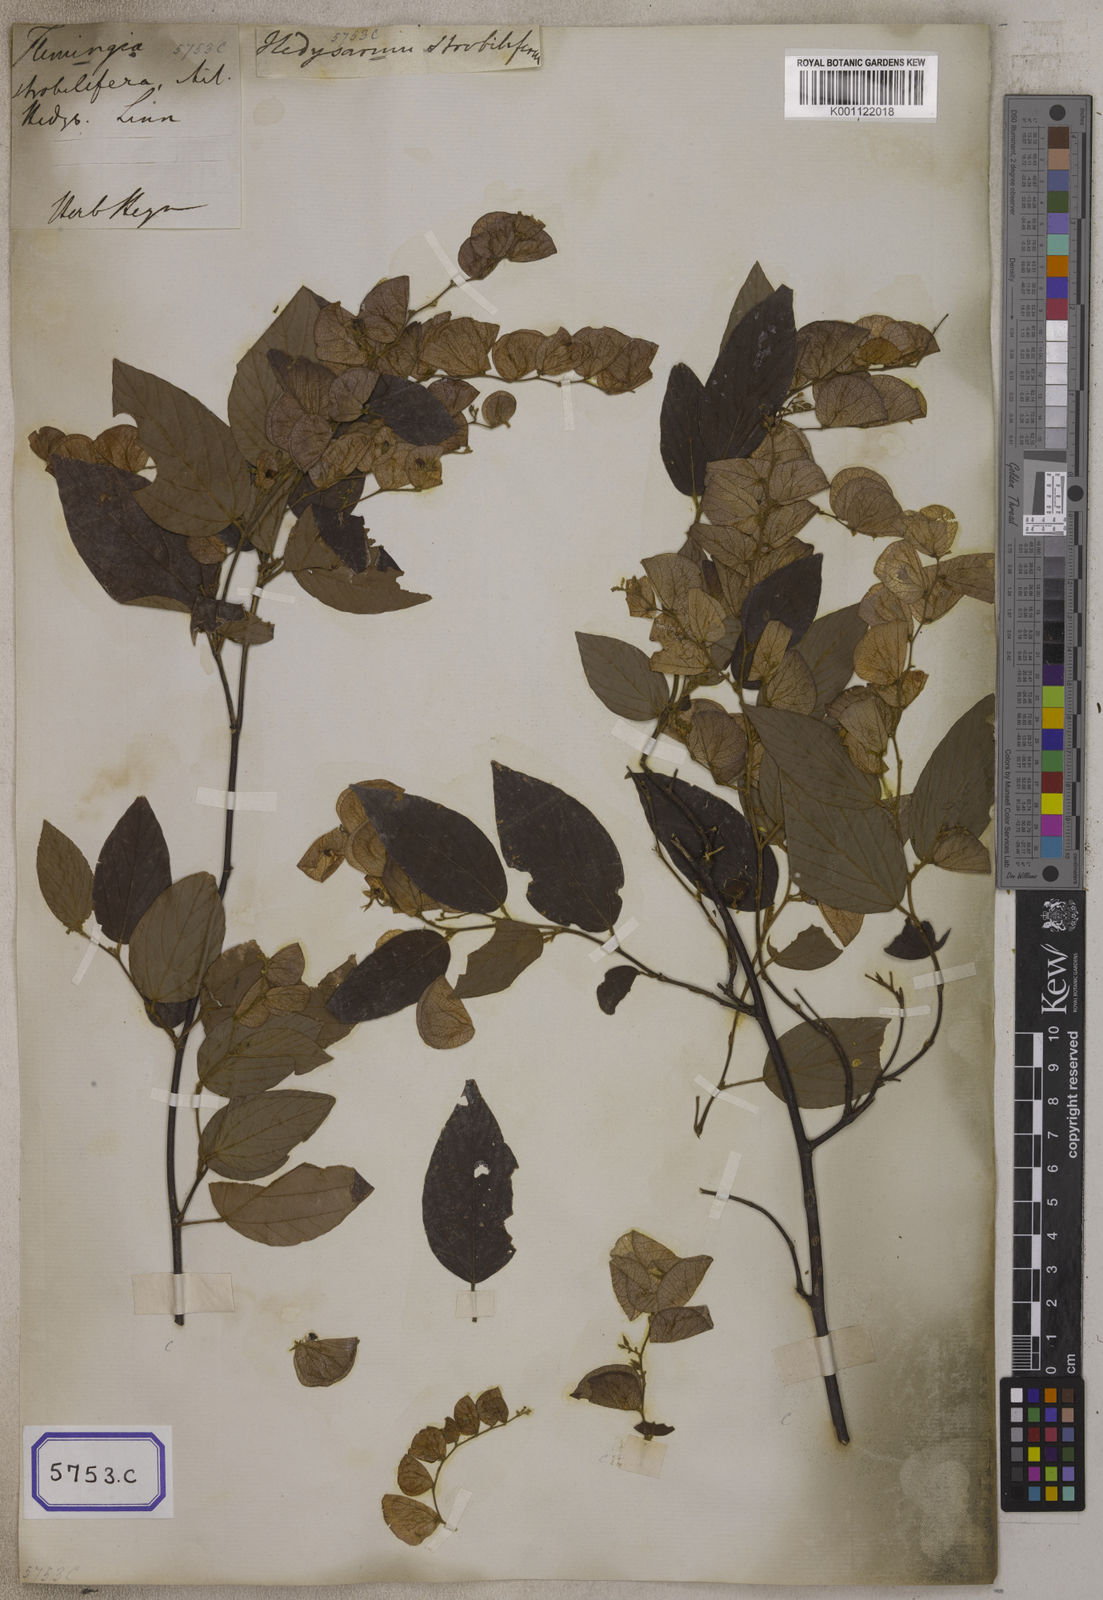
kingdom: Plantae
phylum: Tracheophyta
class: Magnoliopsida
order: Fabales
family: Fabaceae
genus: Flemingia
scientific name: Flemingia strobilifera
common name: Wild hops
